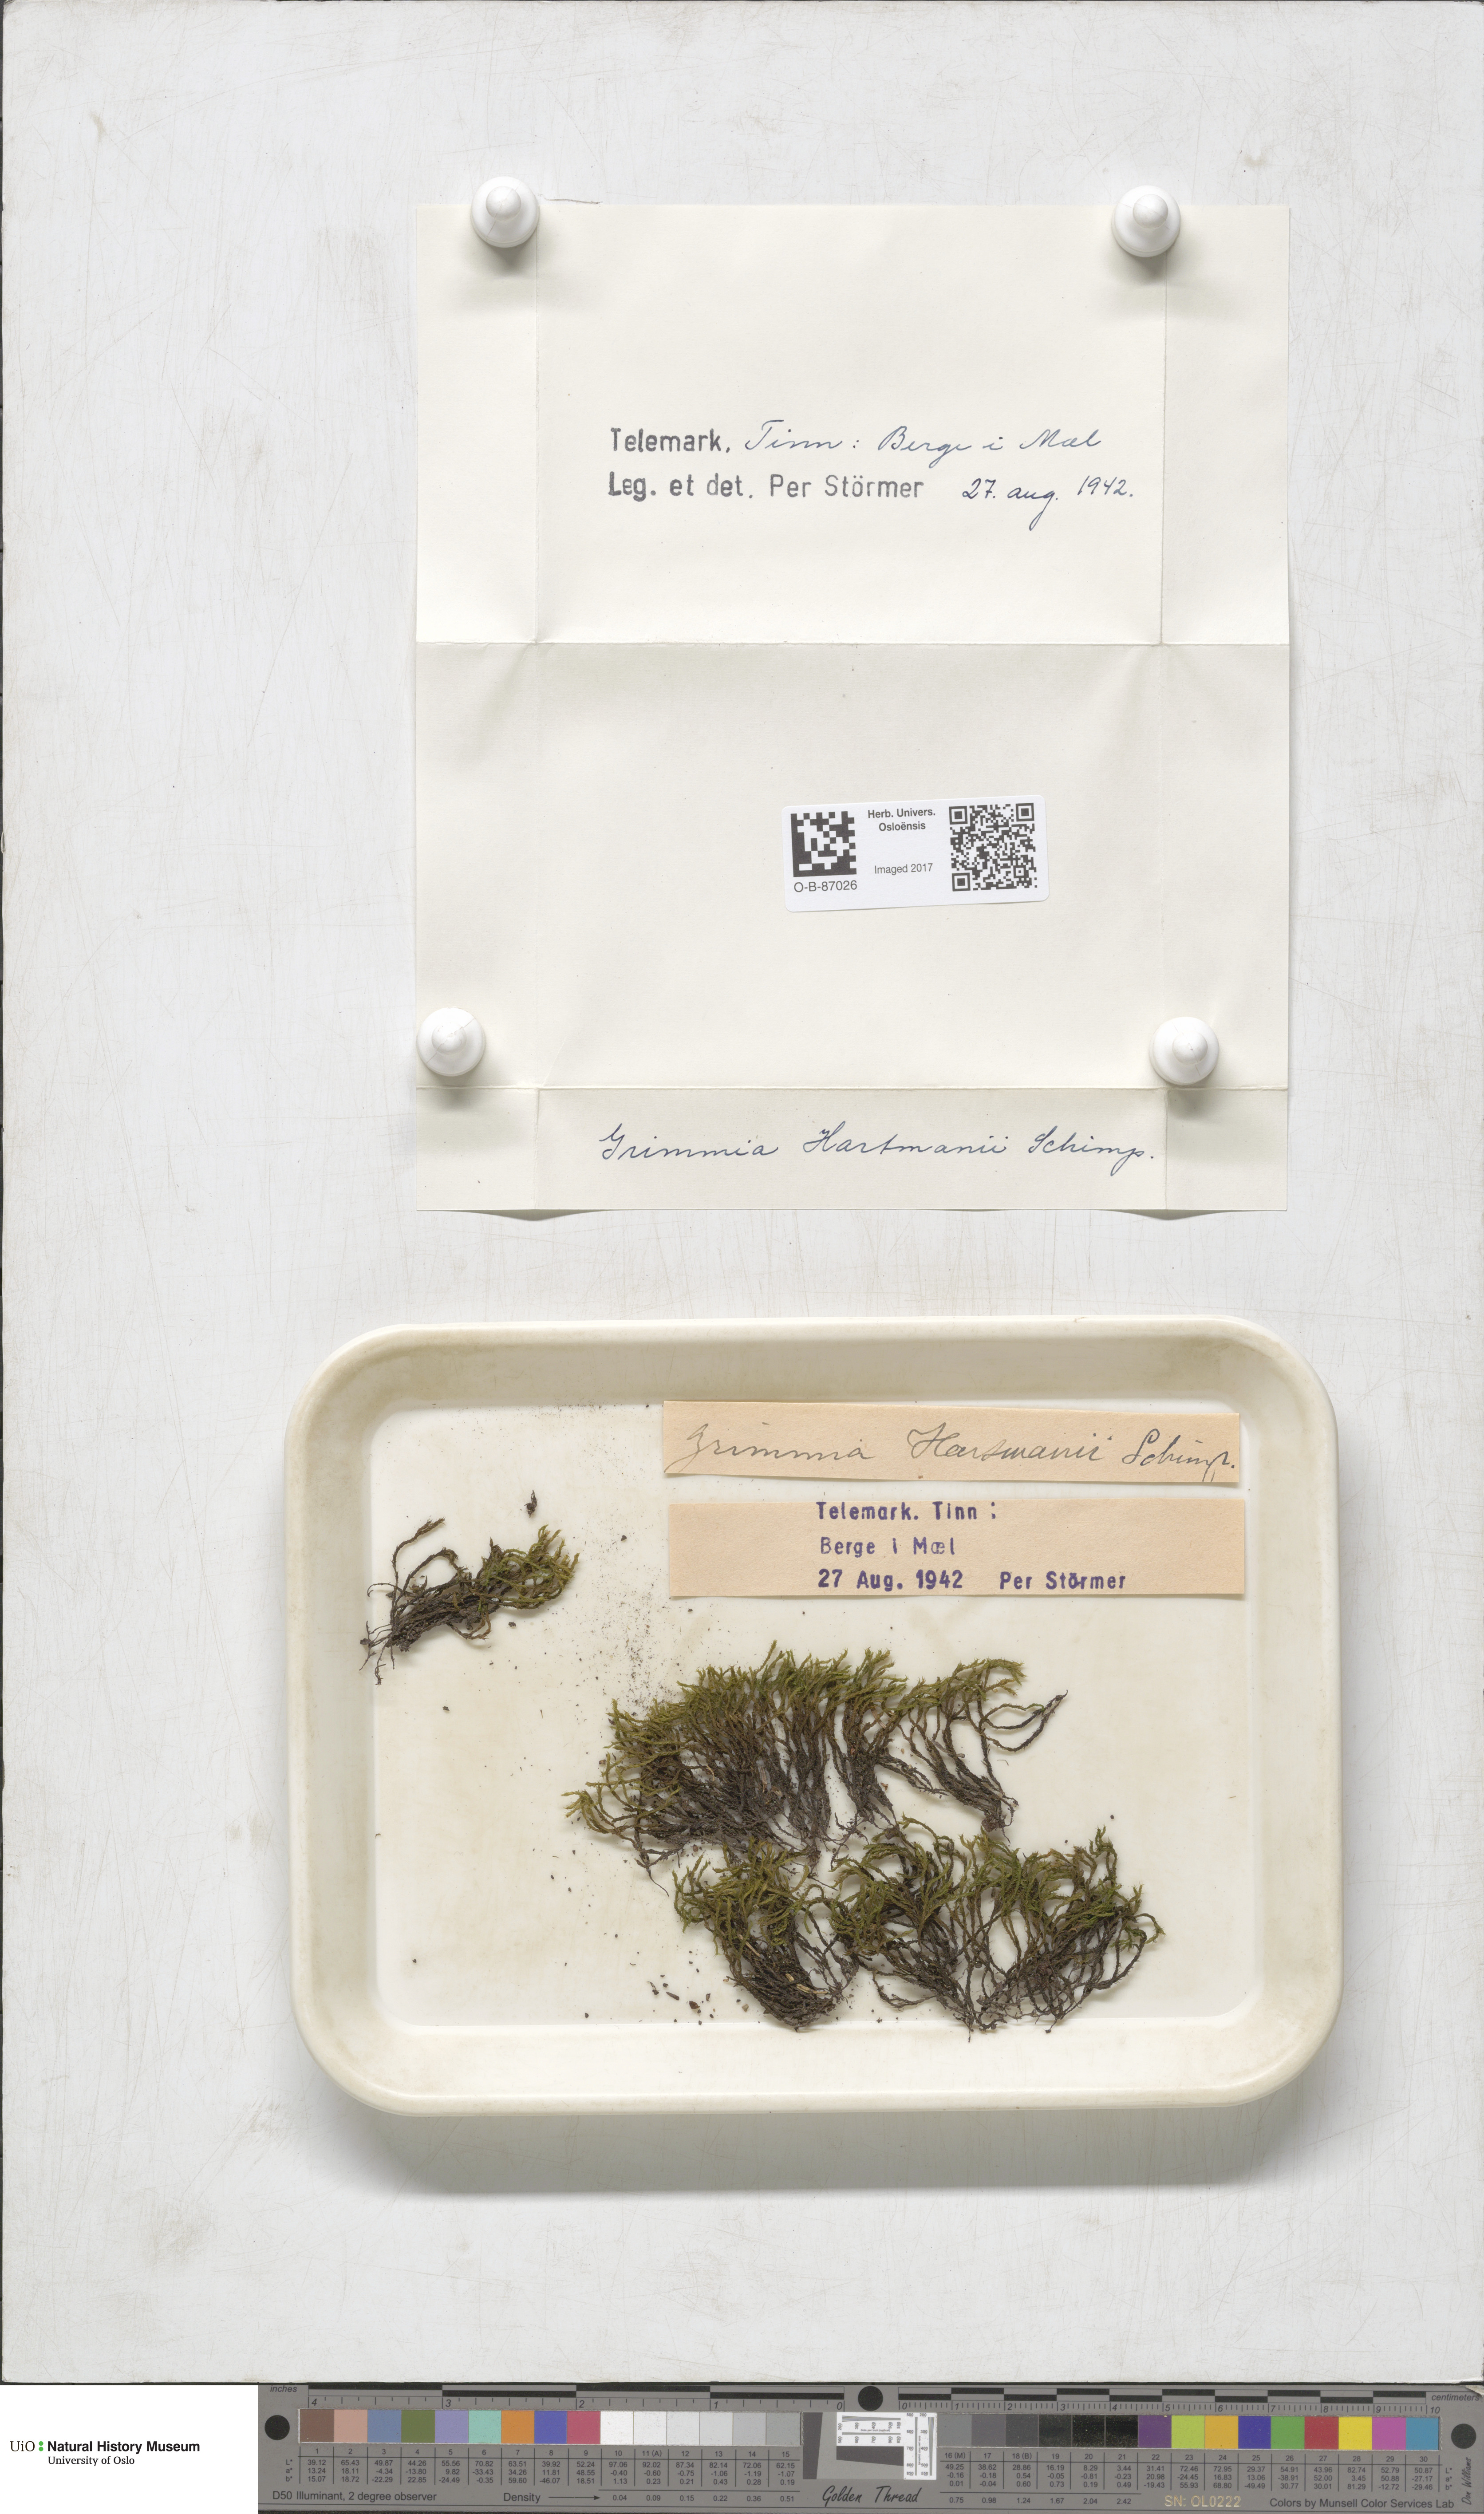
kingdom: Plantae
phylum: Bryophyta
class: Bryopsida
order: Grimmiales
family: Grimmiaceae
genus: Grimmia
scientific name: Grimmia hartmanii
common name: Hartman's grimmia
